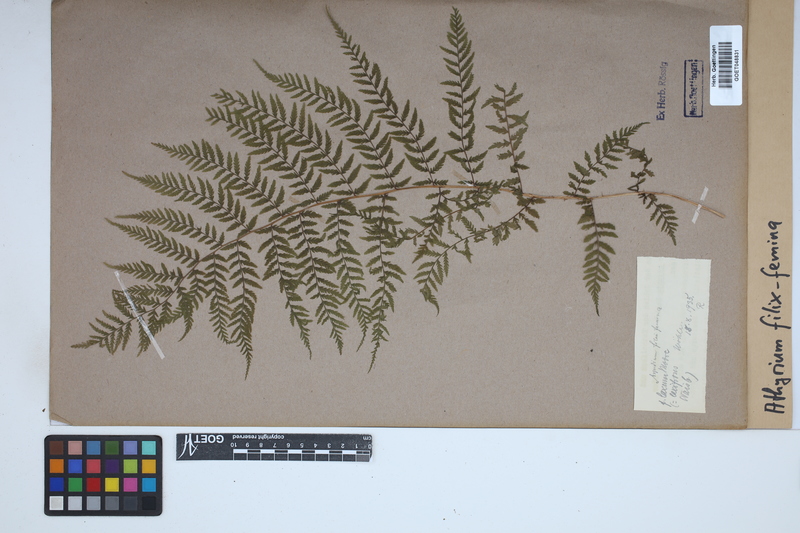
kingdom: Plantae
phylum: Tracheophyta
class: Polypodiopsida
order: Polypodiales
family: Athyriaceae
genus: Athyrium
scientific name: Athyrium filix-femina
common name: Lady fern
